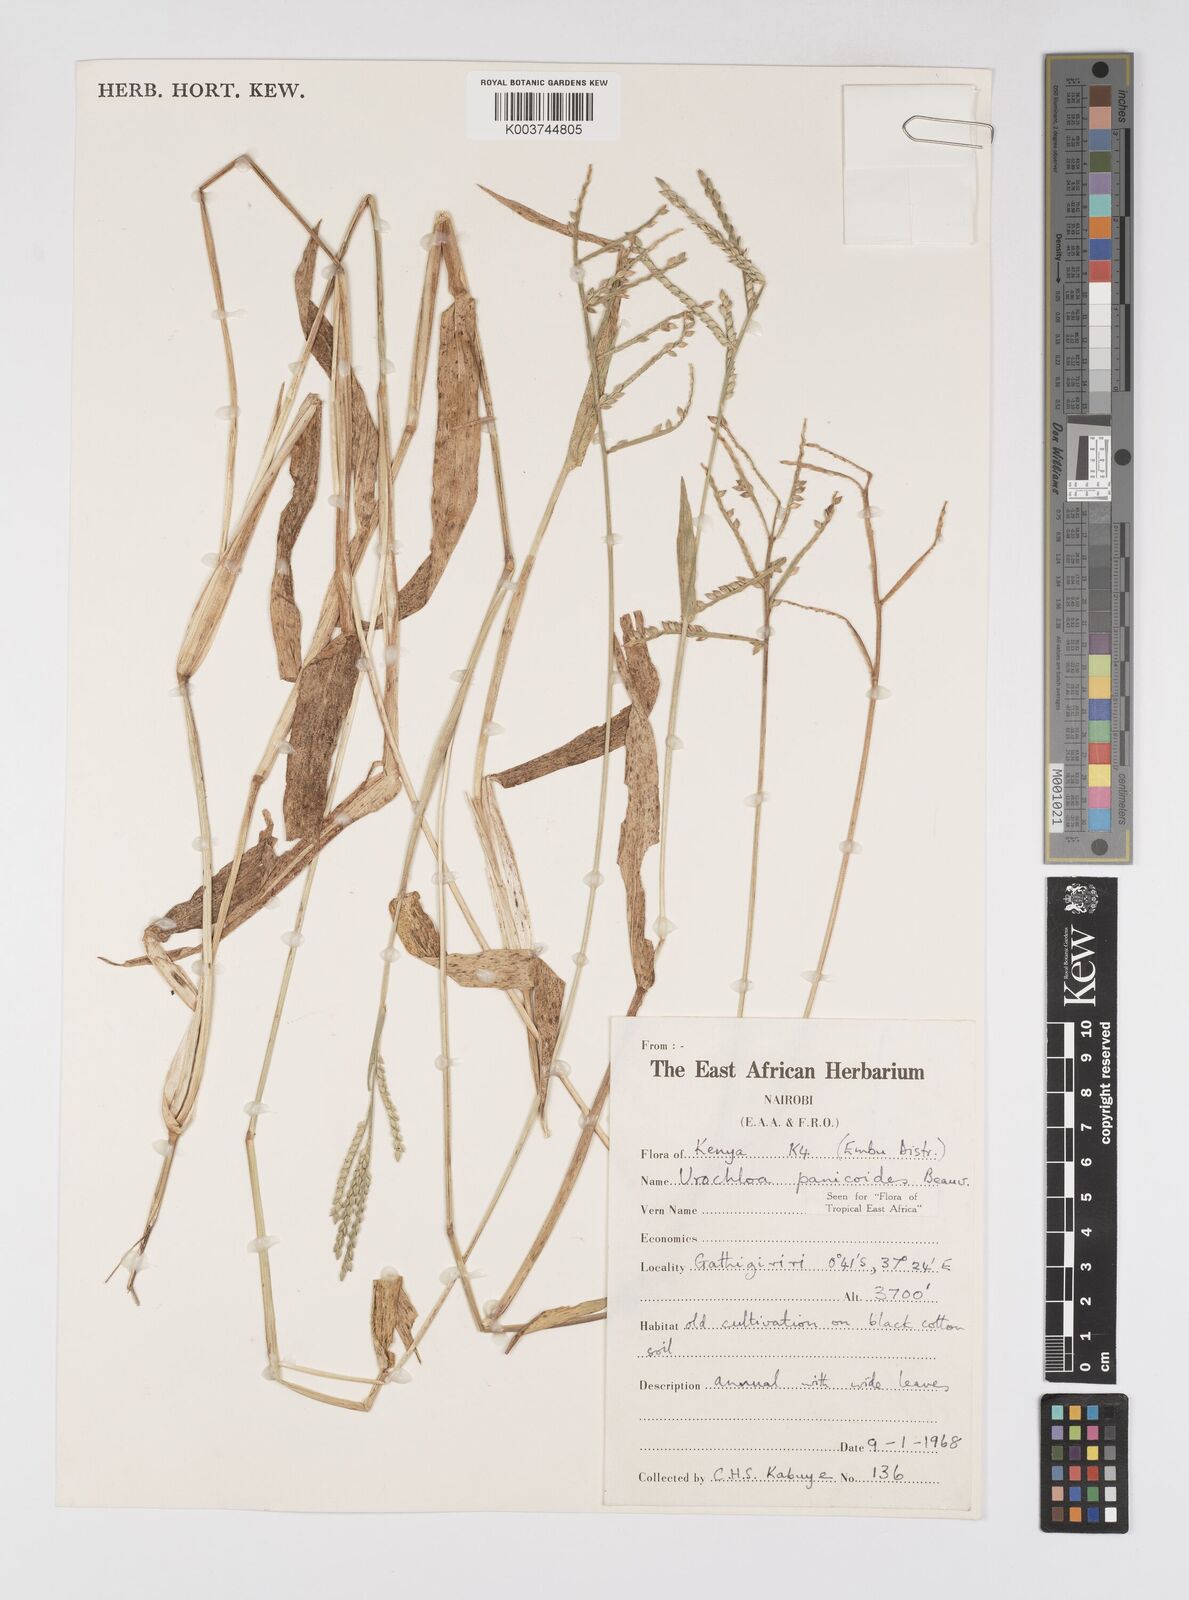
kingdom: Plantae
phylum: Tracheophyta
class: Liliopsida
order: Poales
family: Poaceae
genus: Urochloa
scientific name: Urochloa panicoides
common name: Sharp-flowered signal-grass
